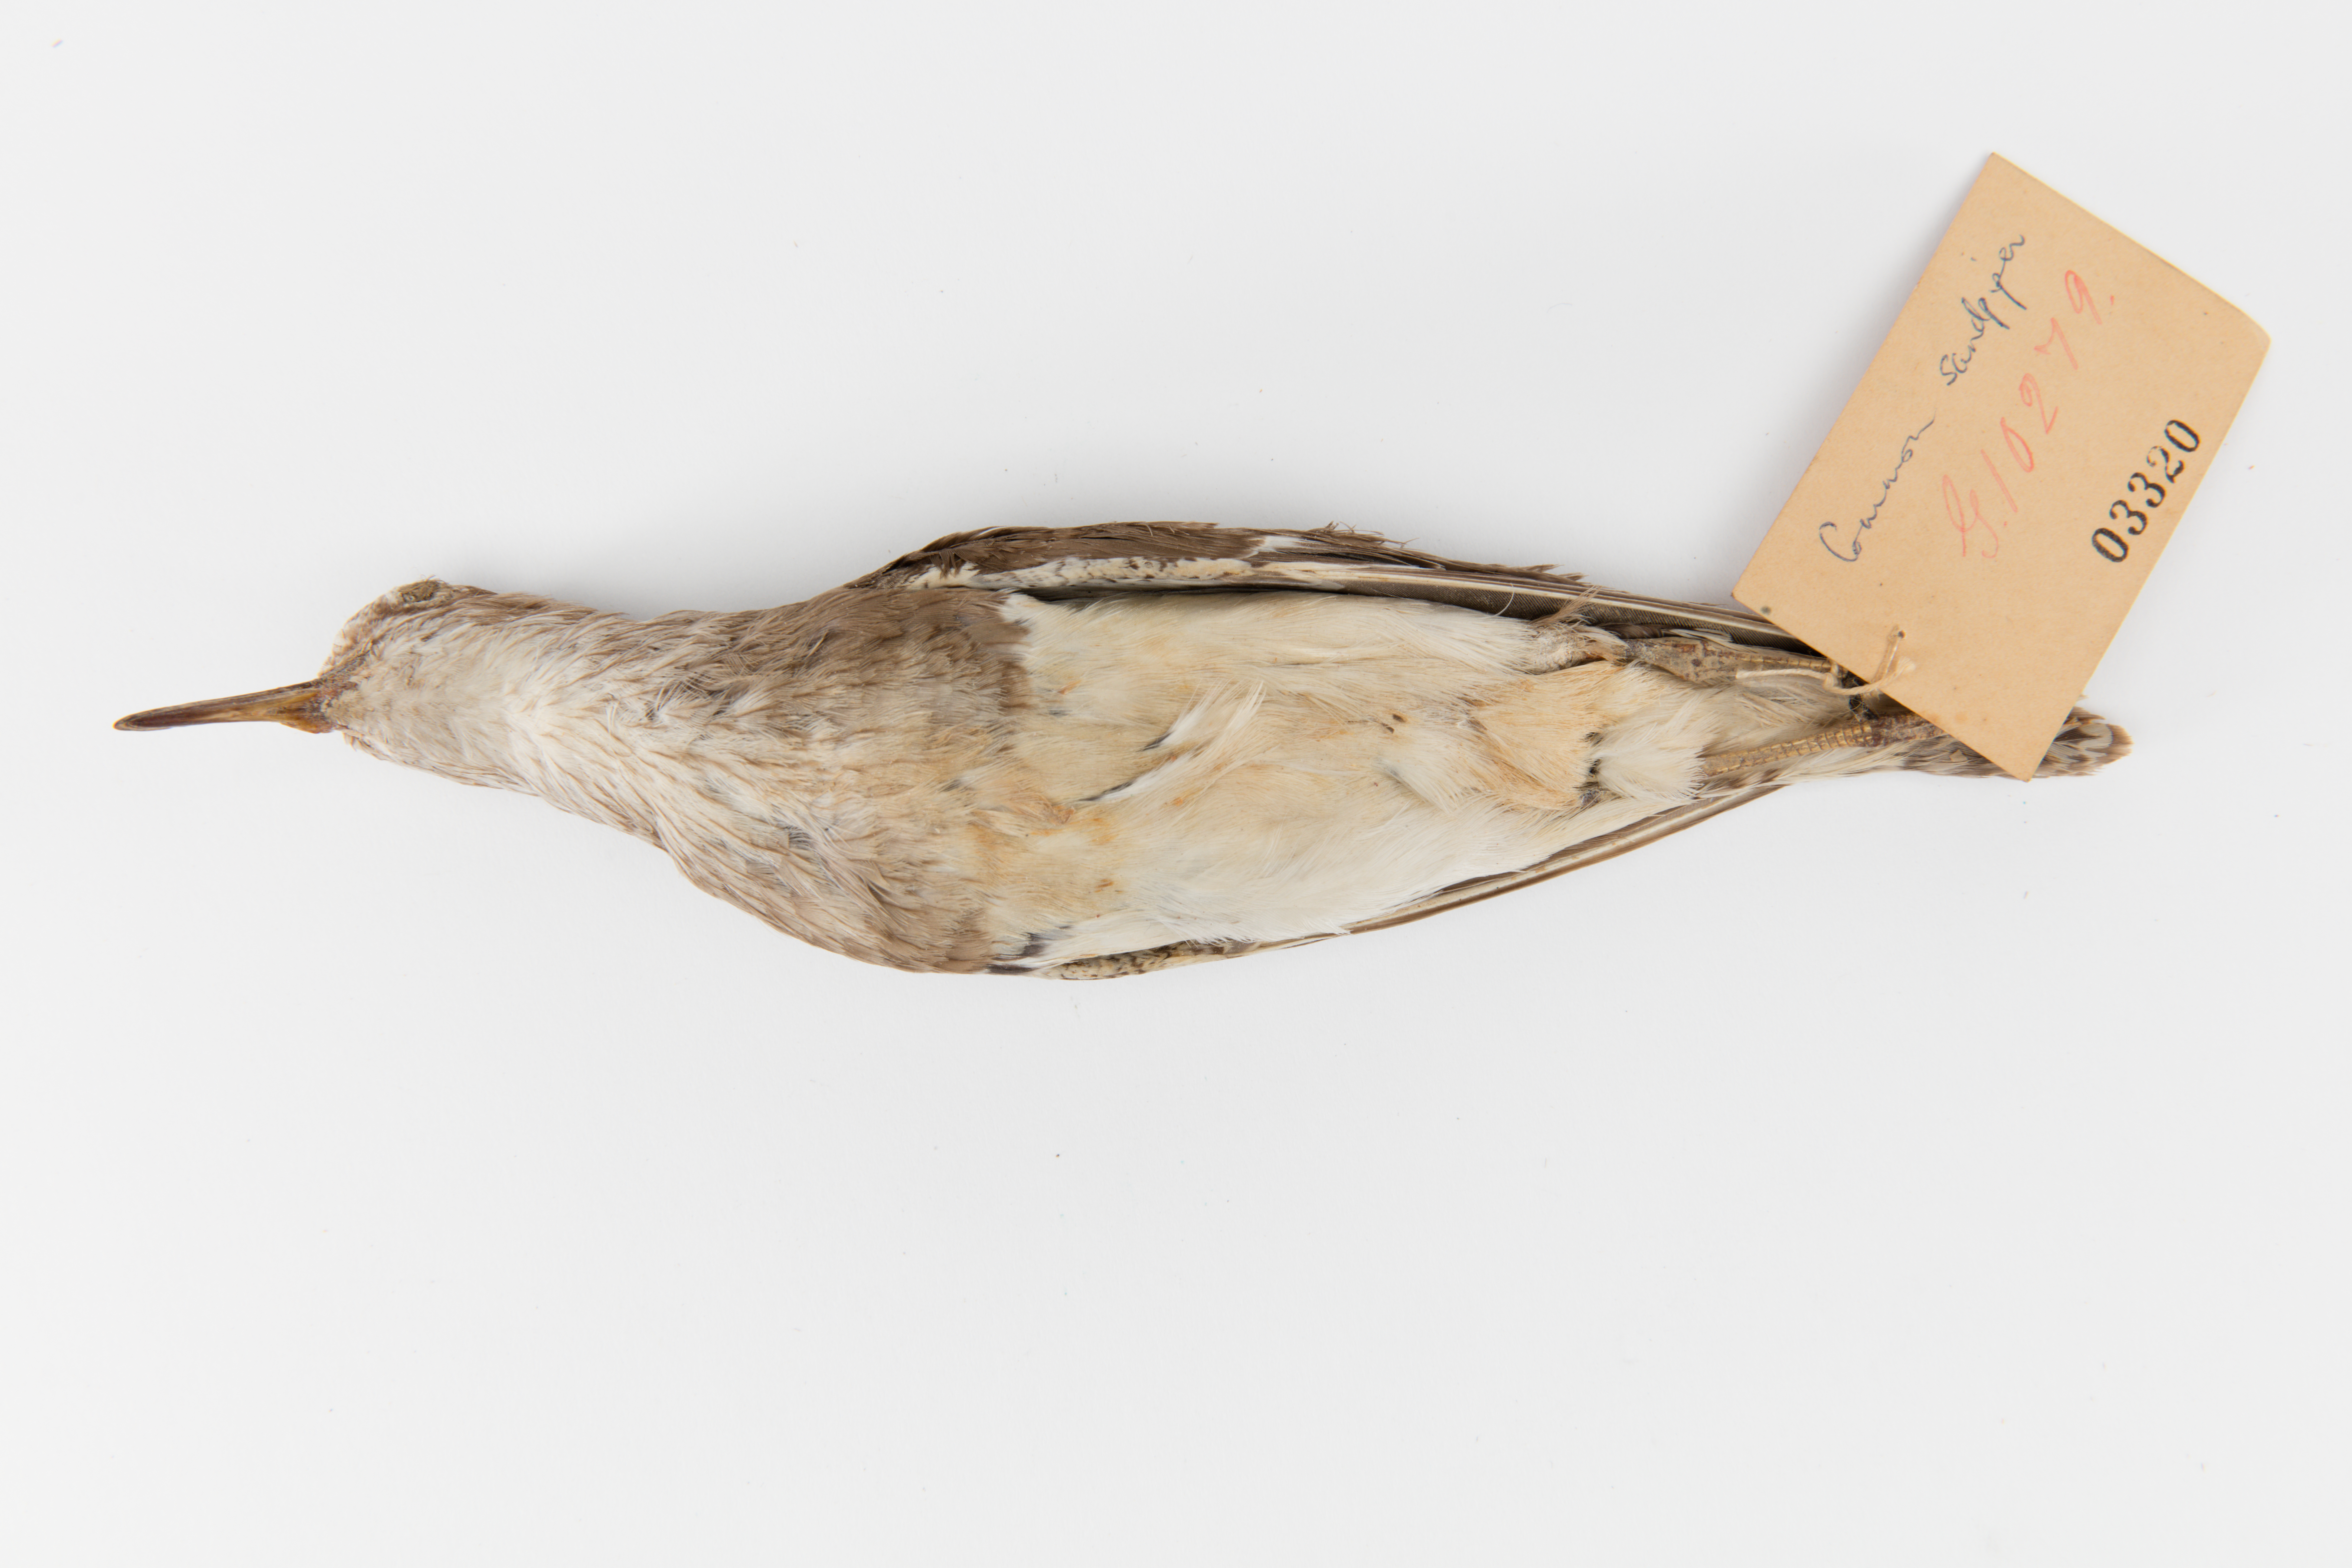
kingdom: Animalia
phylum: Chordata
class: Aves
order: Charadriiformes
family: Scolopacidae
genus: Actitis
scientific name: Actitis hypoleucos
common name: Common sandpiper
